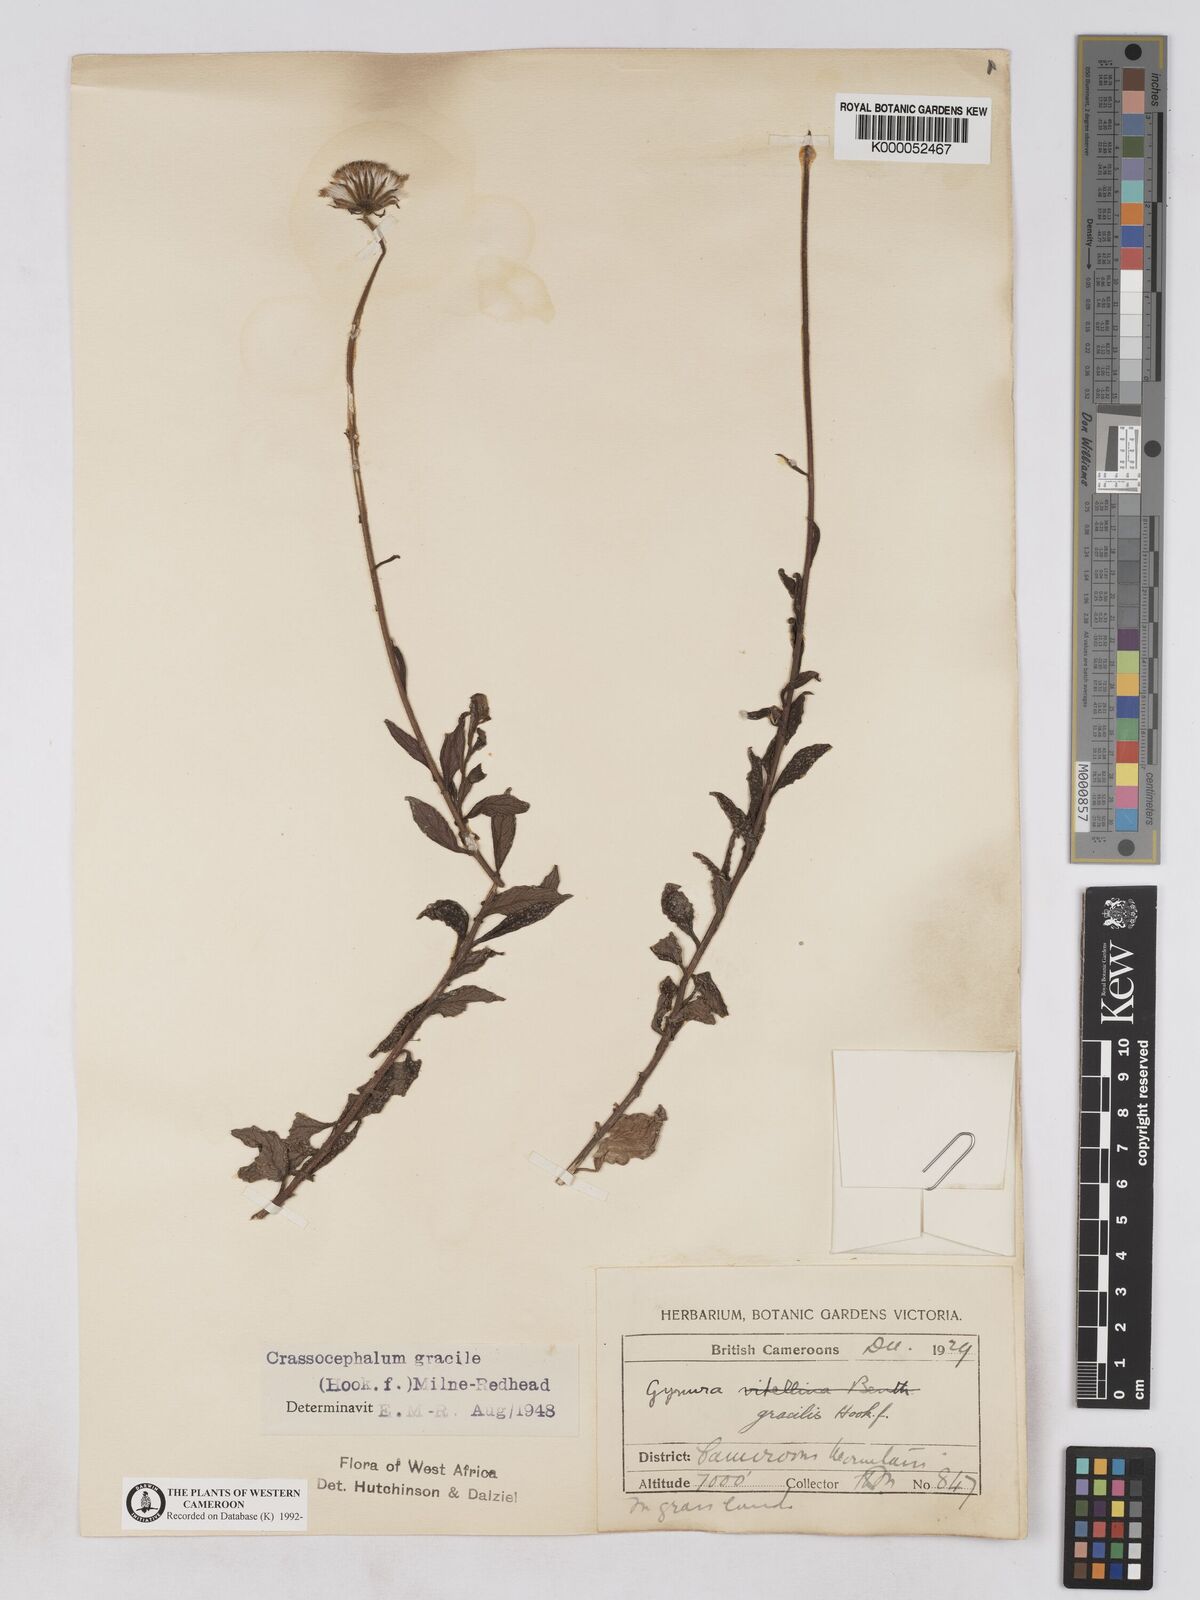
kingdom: Plantae
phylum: Tracheophyta
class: Magnoliopsida
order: Asterales
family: Asteraceae
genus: Crassocephalum
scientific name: Crassocephalum
